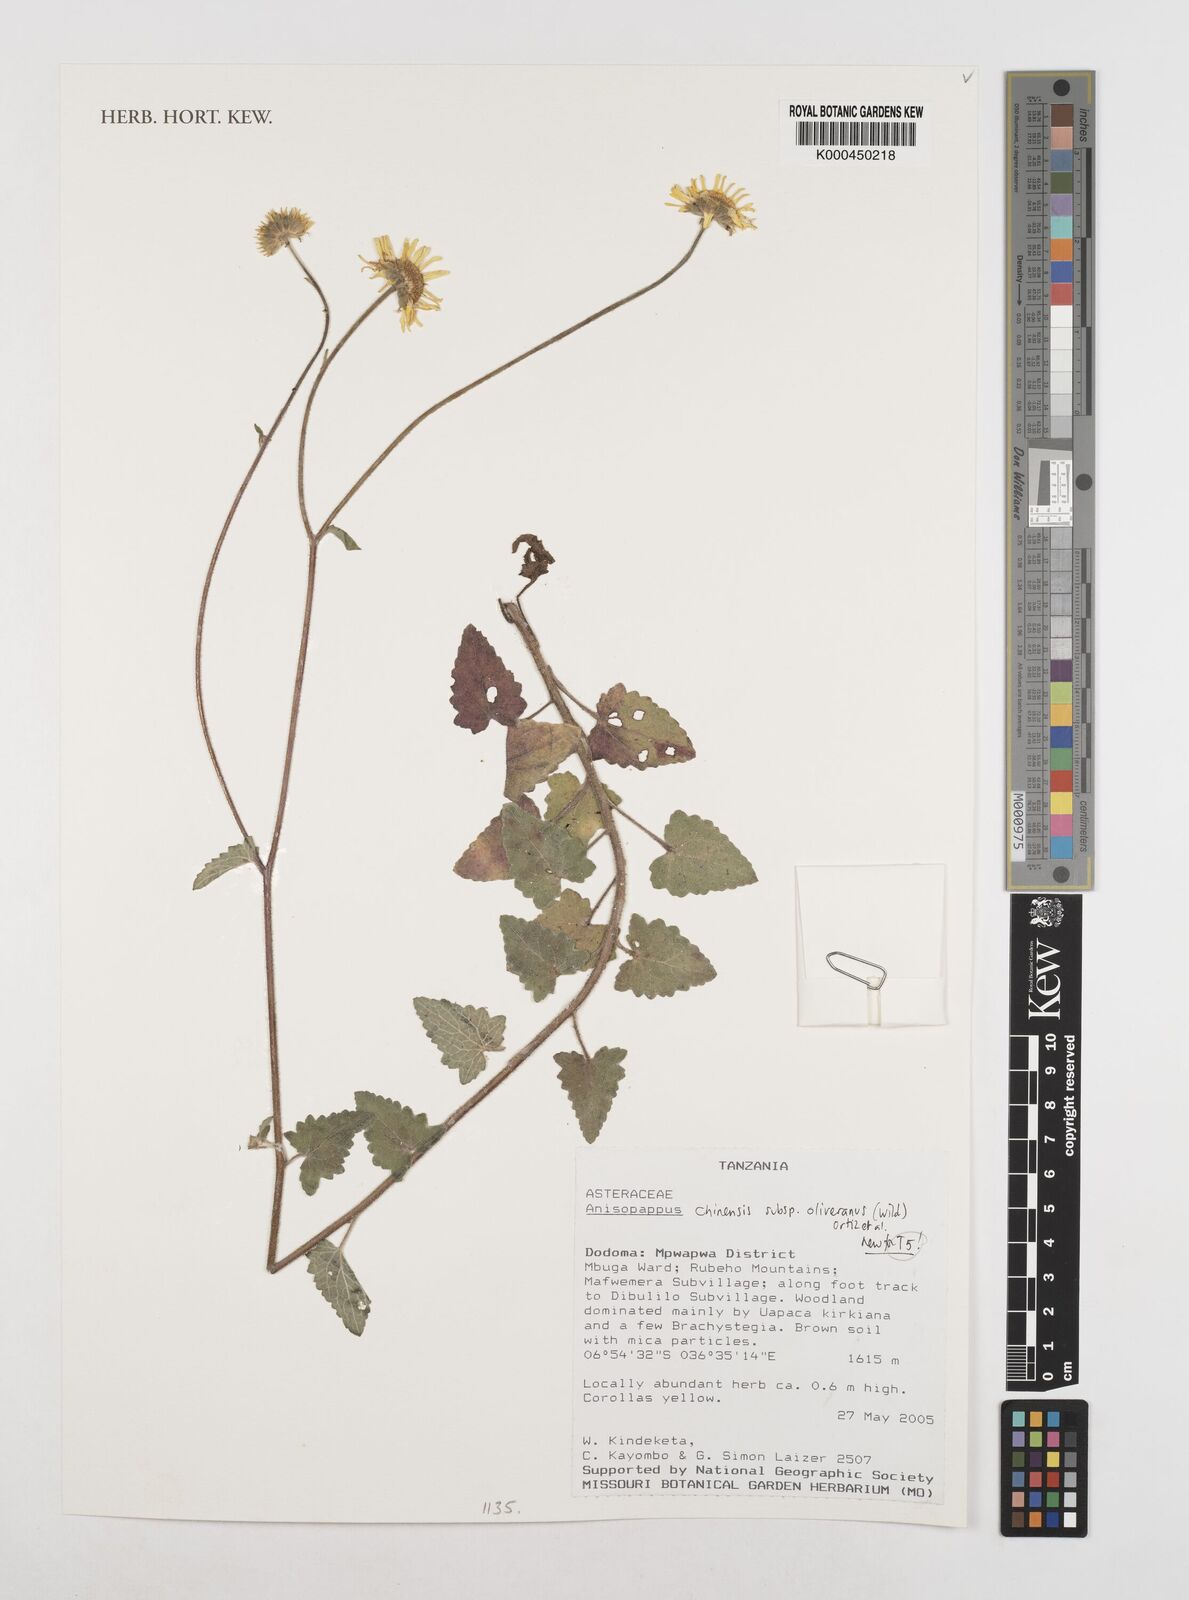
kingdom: Plantae
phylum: Tracheophyta
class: Magnoliopsida
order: Asterales
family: Asteraceae
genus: Anisopappus
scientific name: Anisopappus chinensis
